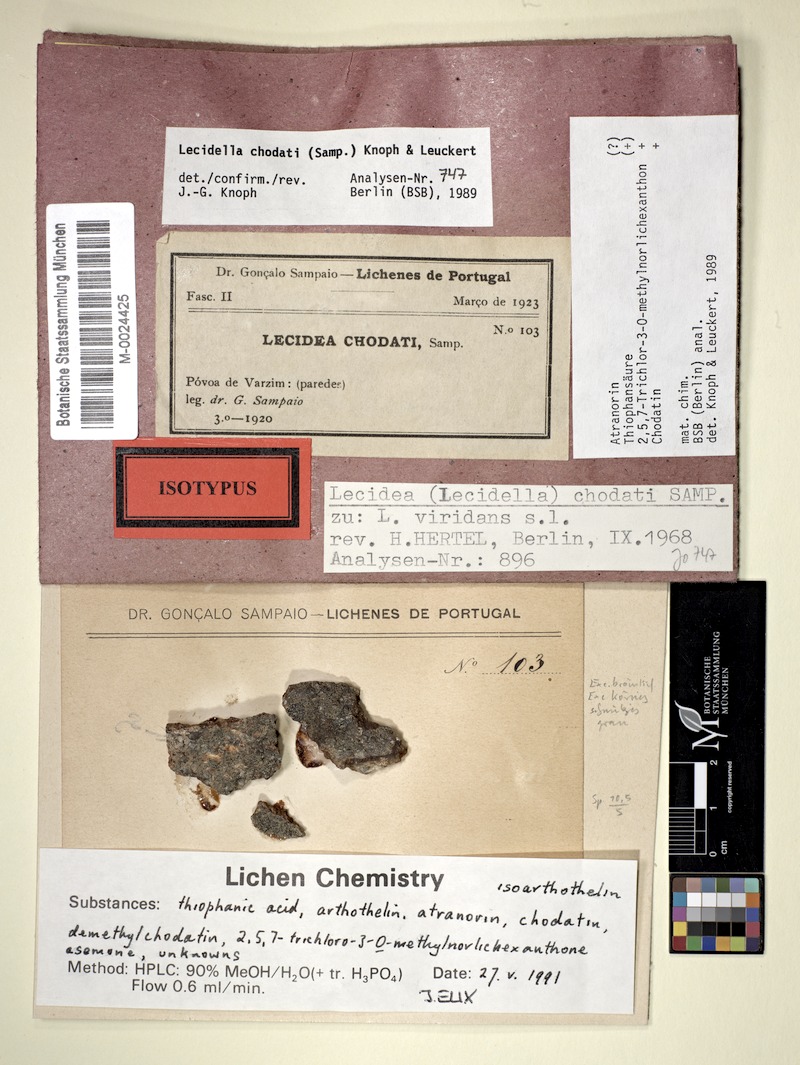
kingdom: Fungi
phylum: Ascomycota
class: Lecanoromycetes
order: Lecanorales
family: Lecanoraceae
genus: Lecidella
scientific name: Lecidella chodatii
